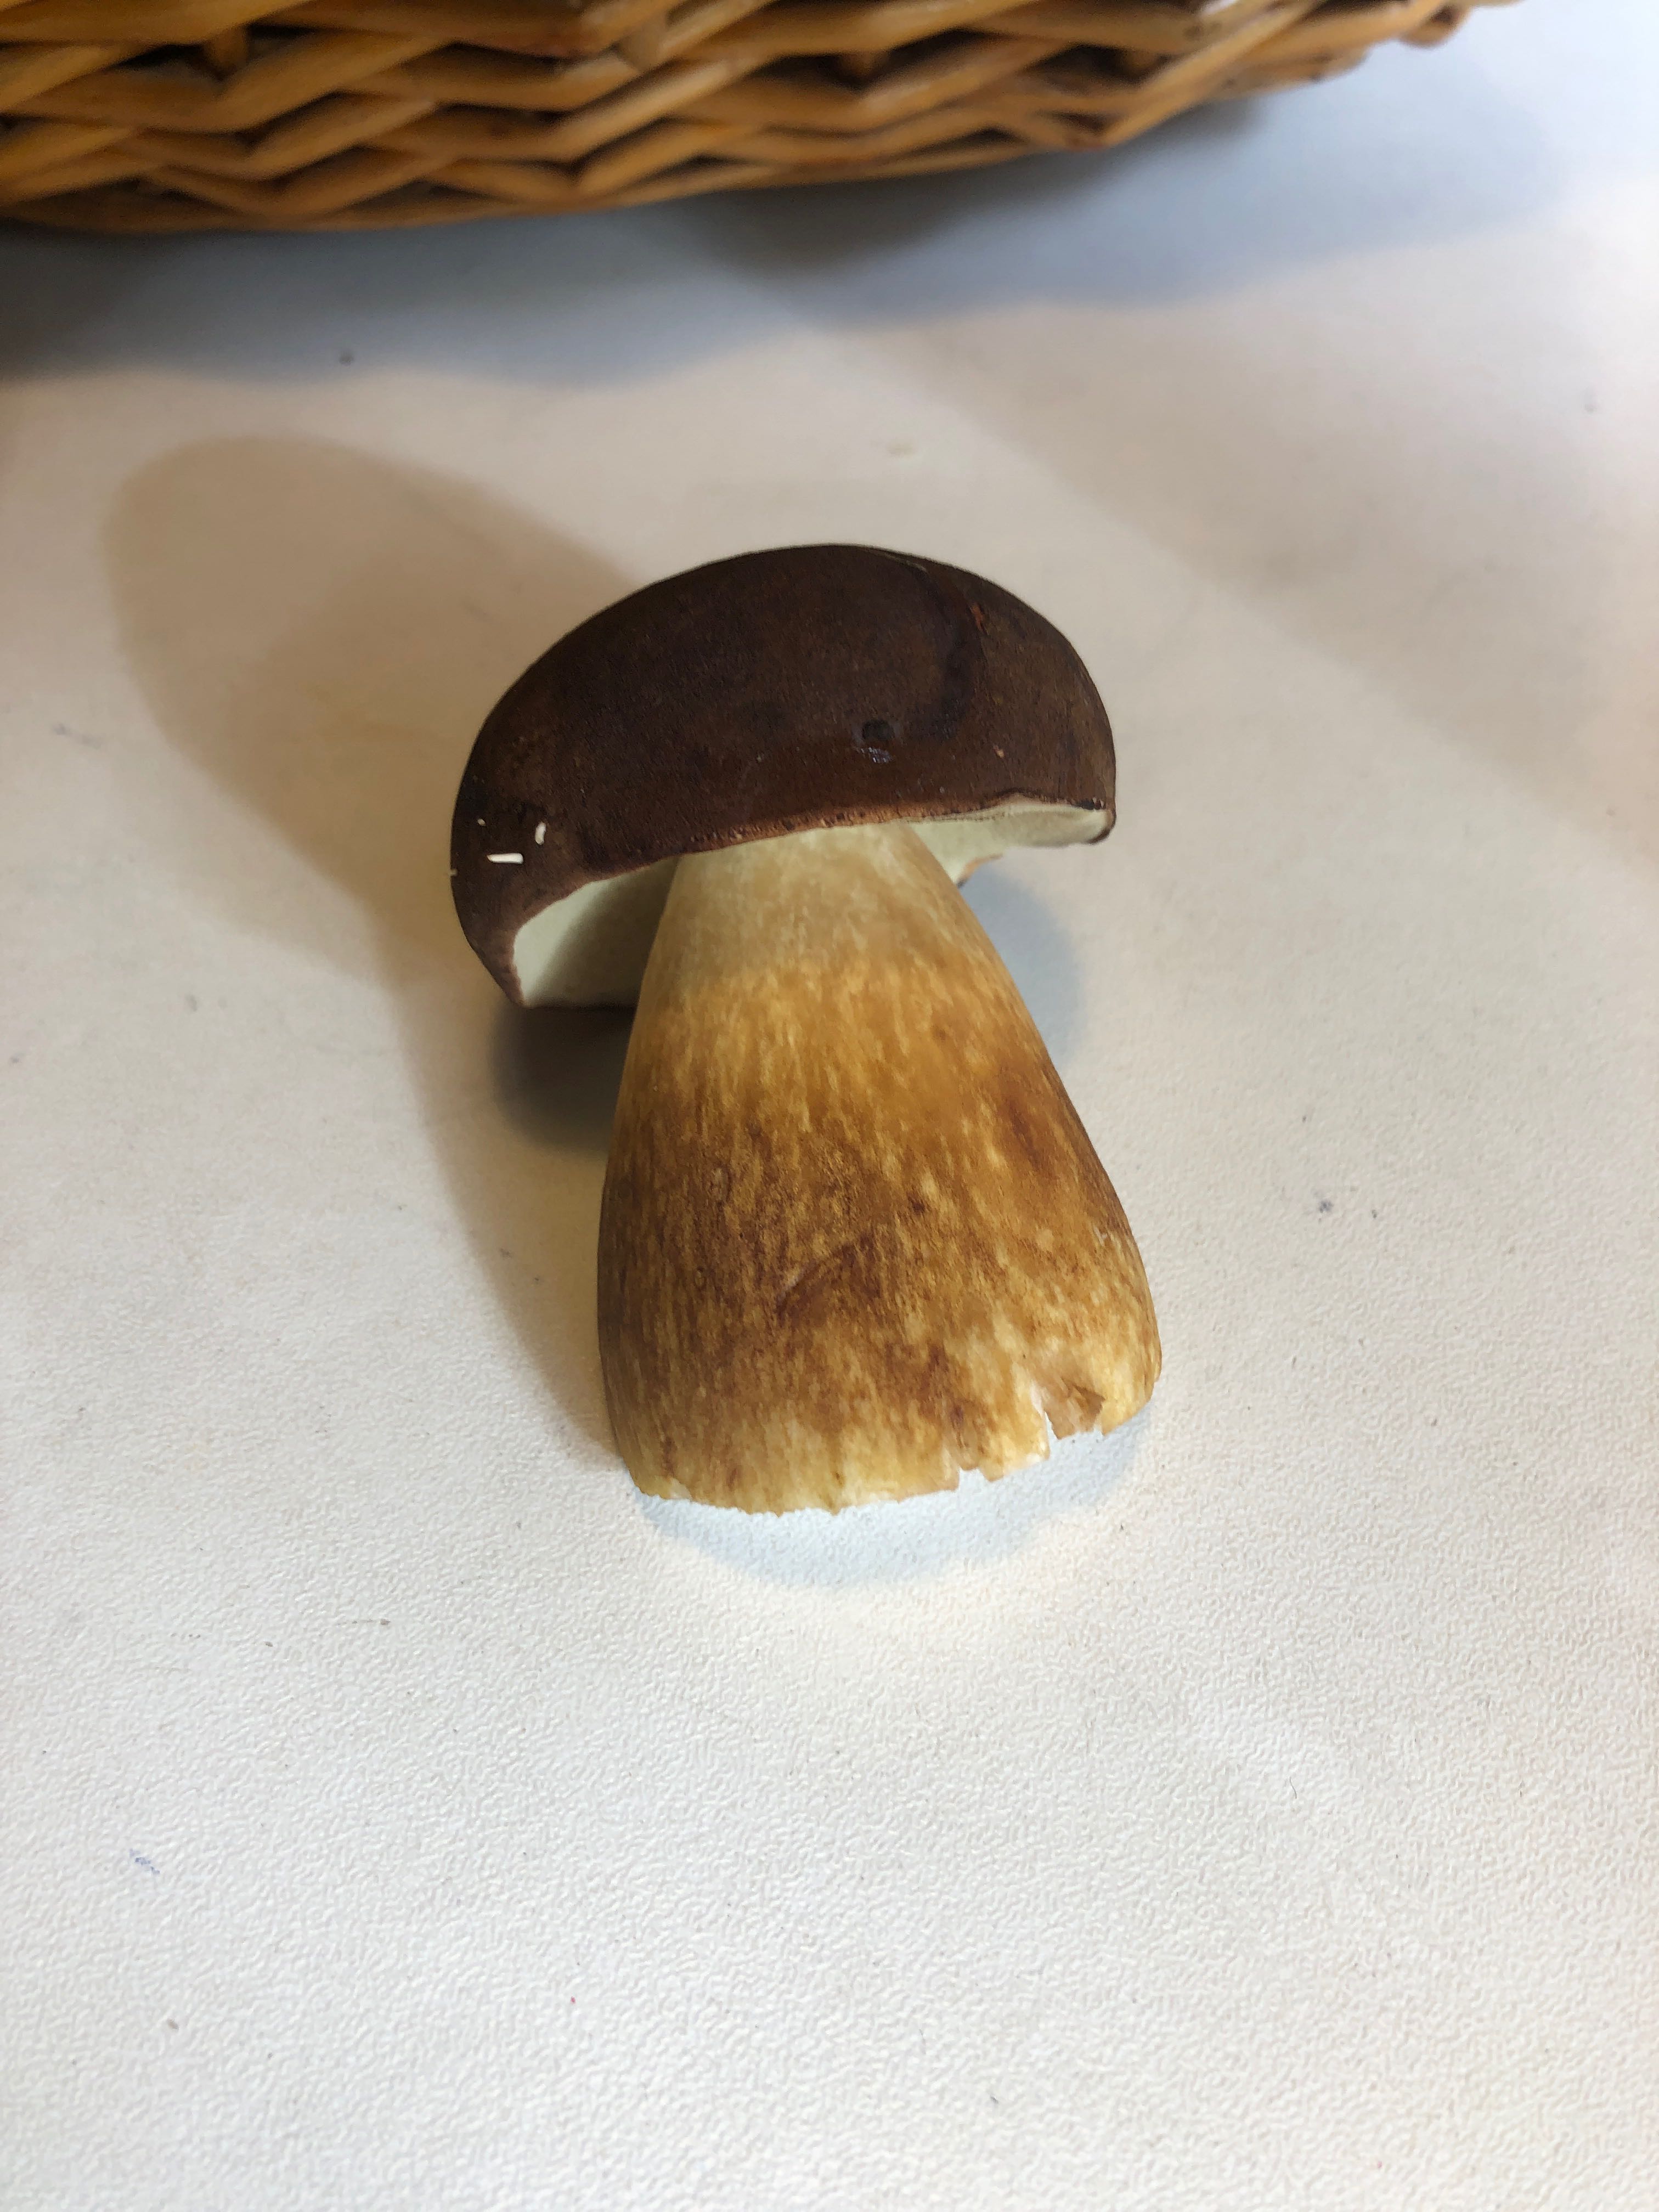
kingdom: Fungi
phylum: Basidiomycota
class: Agaricomycetes
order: Boletales
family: Boletaceae
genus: Imleria
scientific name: Imleria badia
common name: brunstokket rørhat
